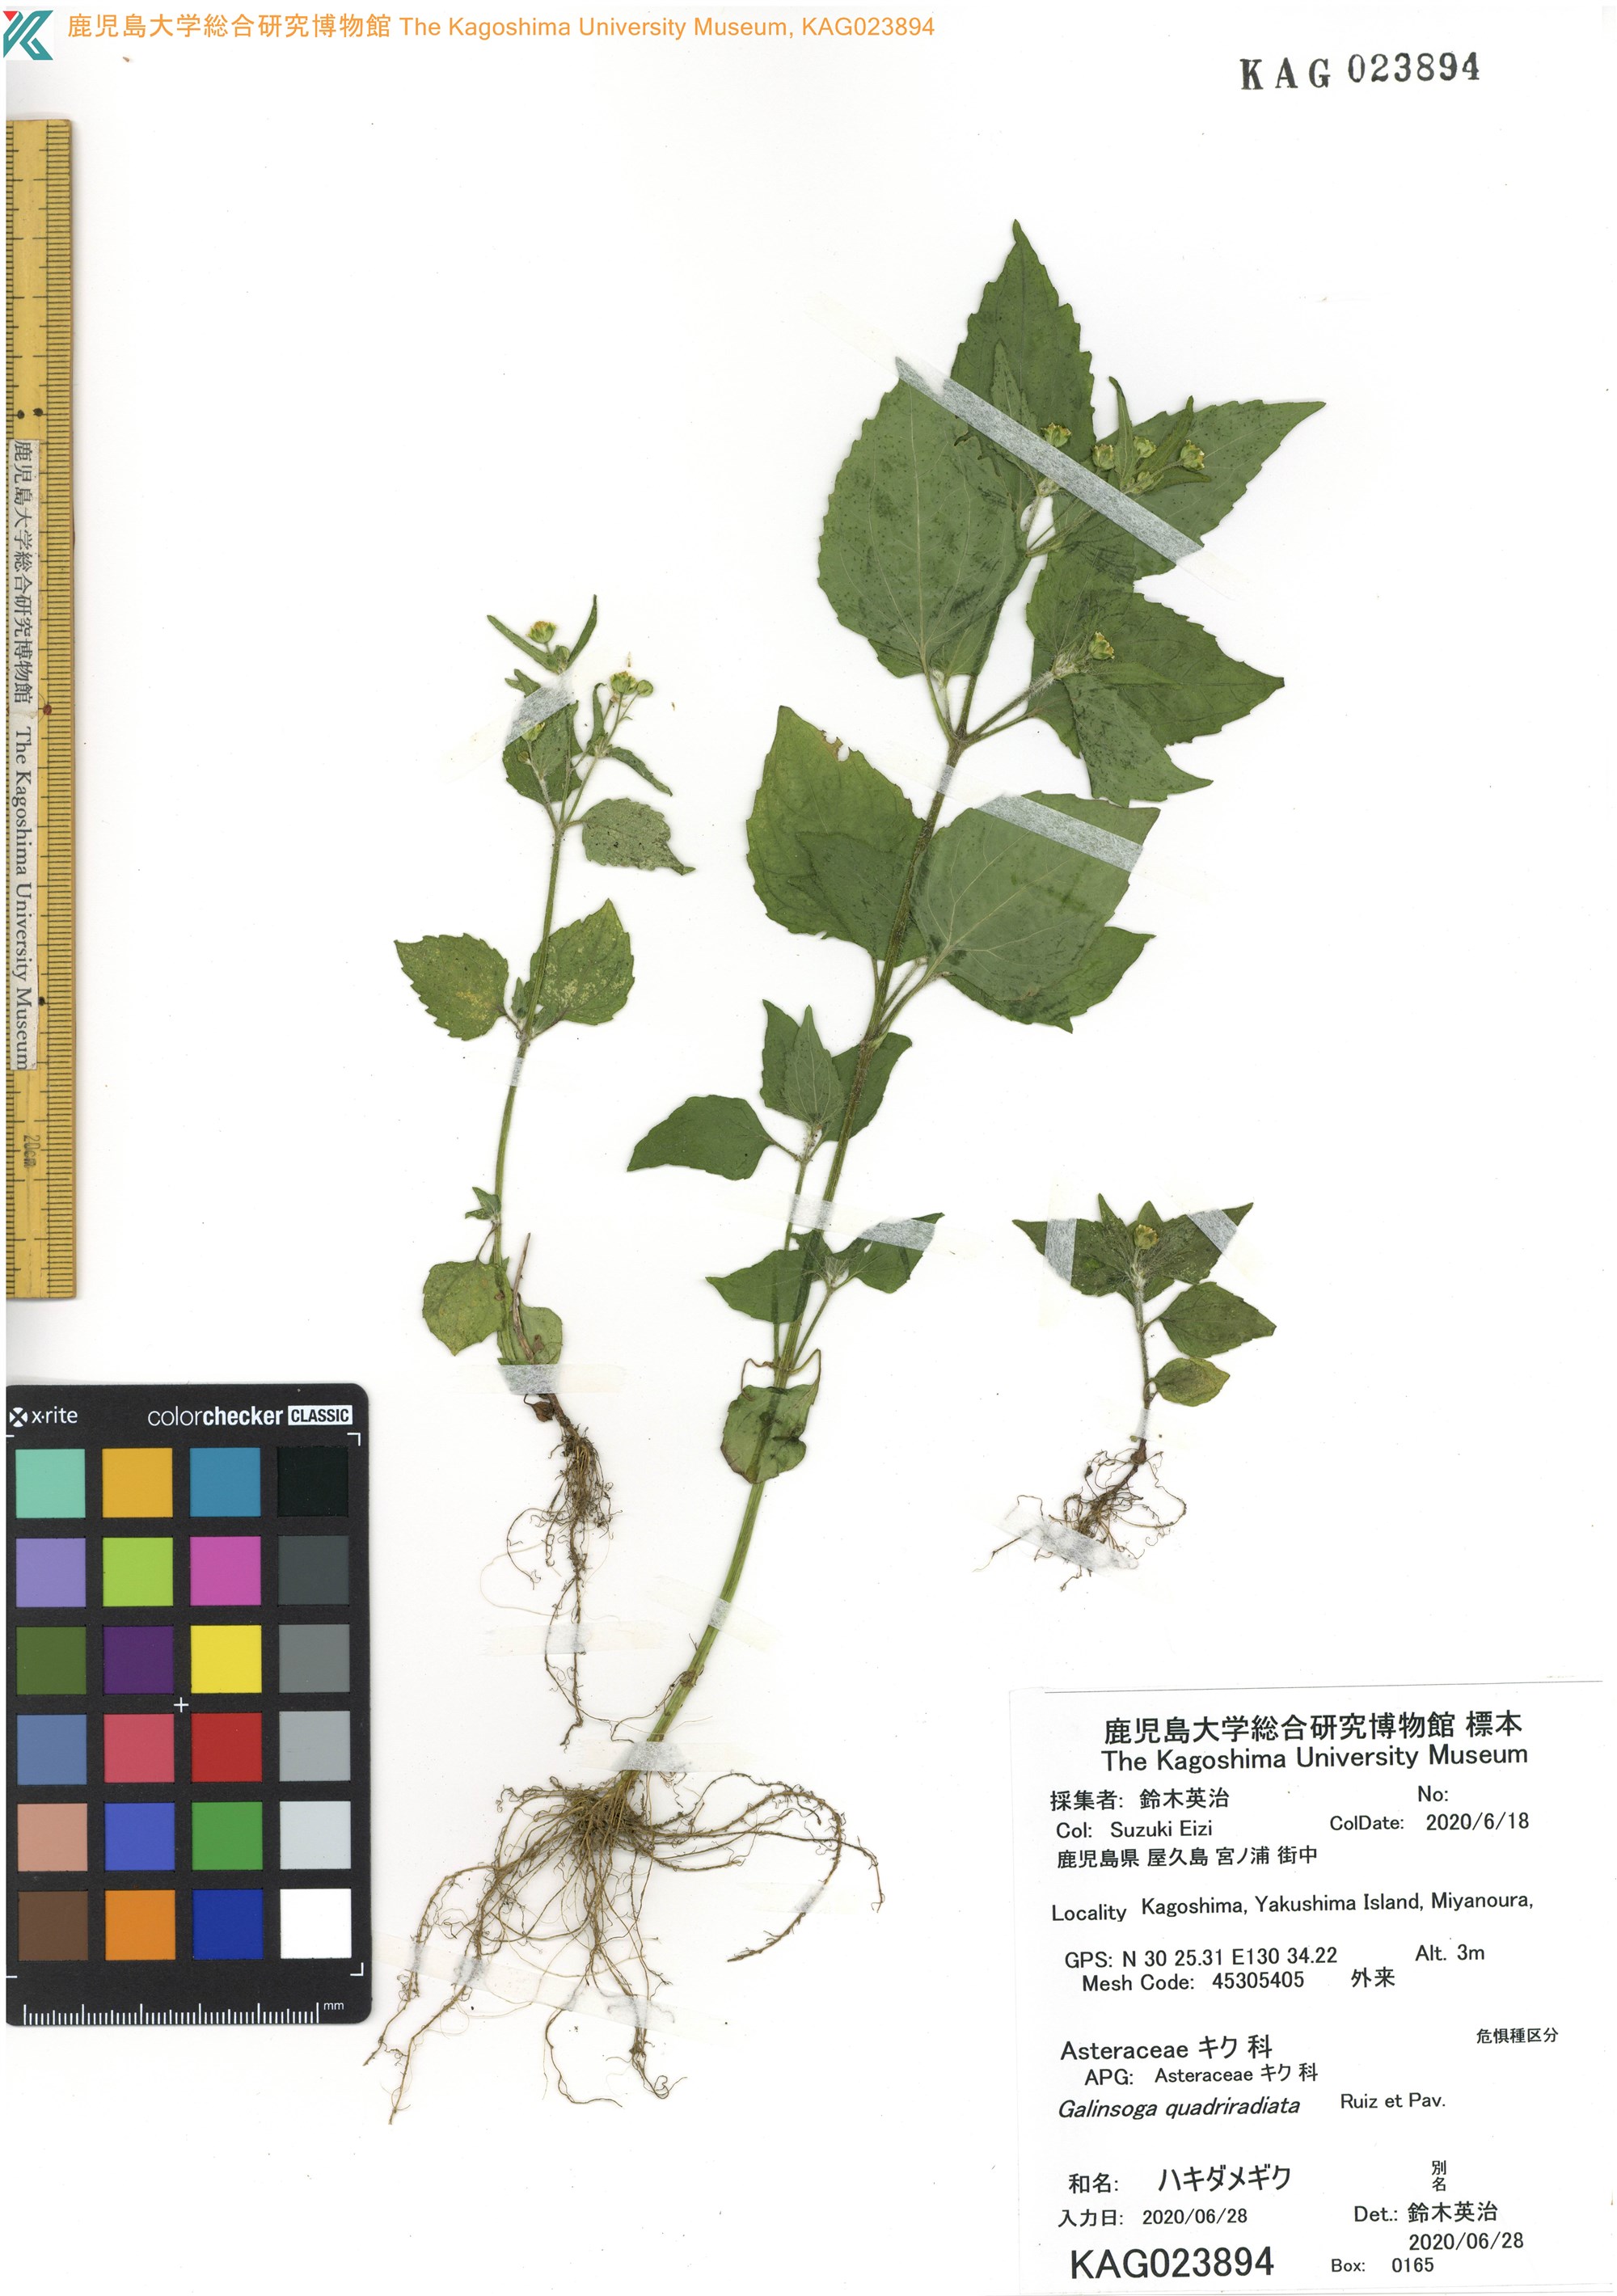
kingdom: Plantae
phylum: Tracheophyta
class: Magnoliopsida
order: Asterales
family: Asteraceae
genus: Galinsoga
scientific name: Galinsoga quadriradiata
